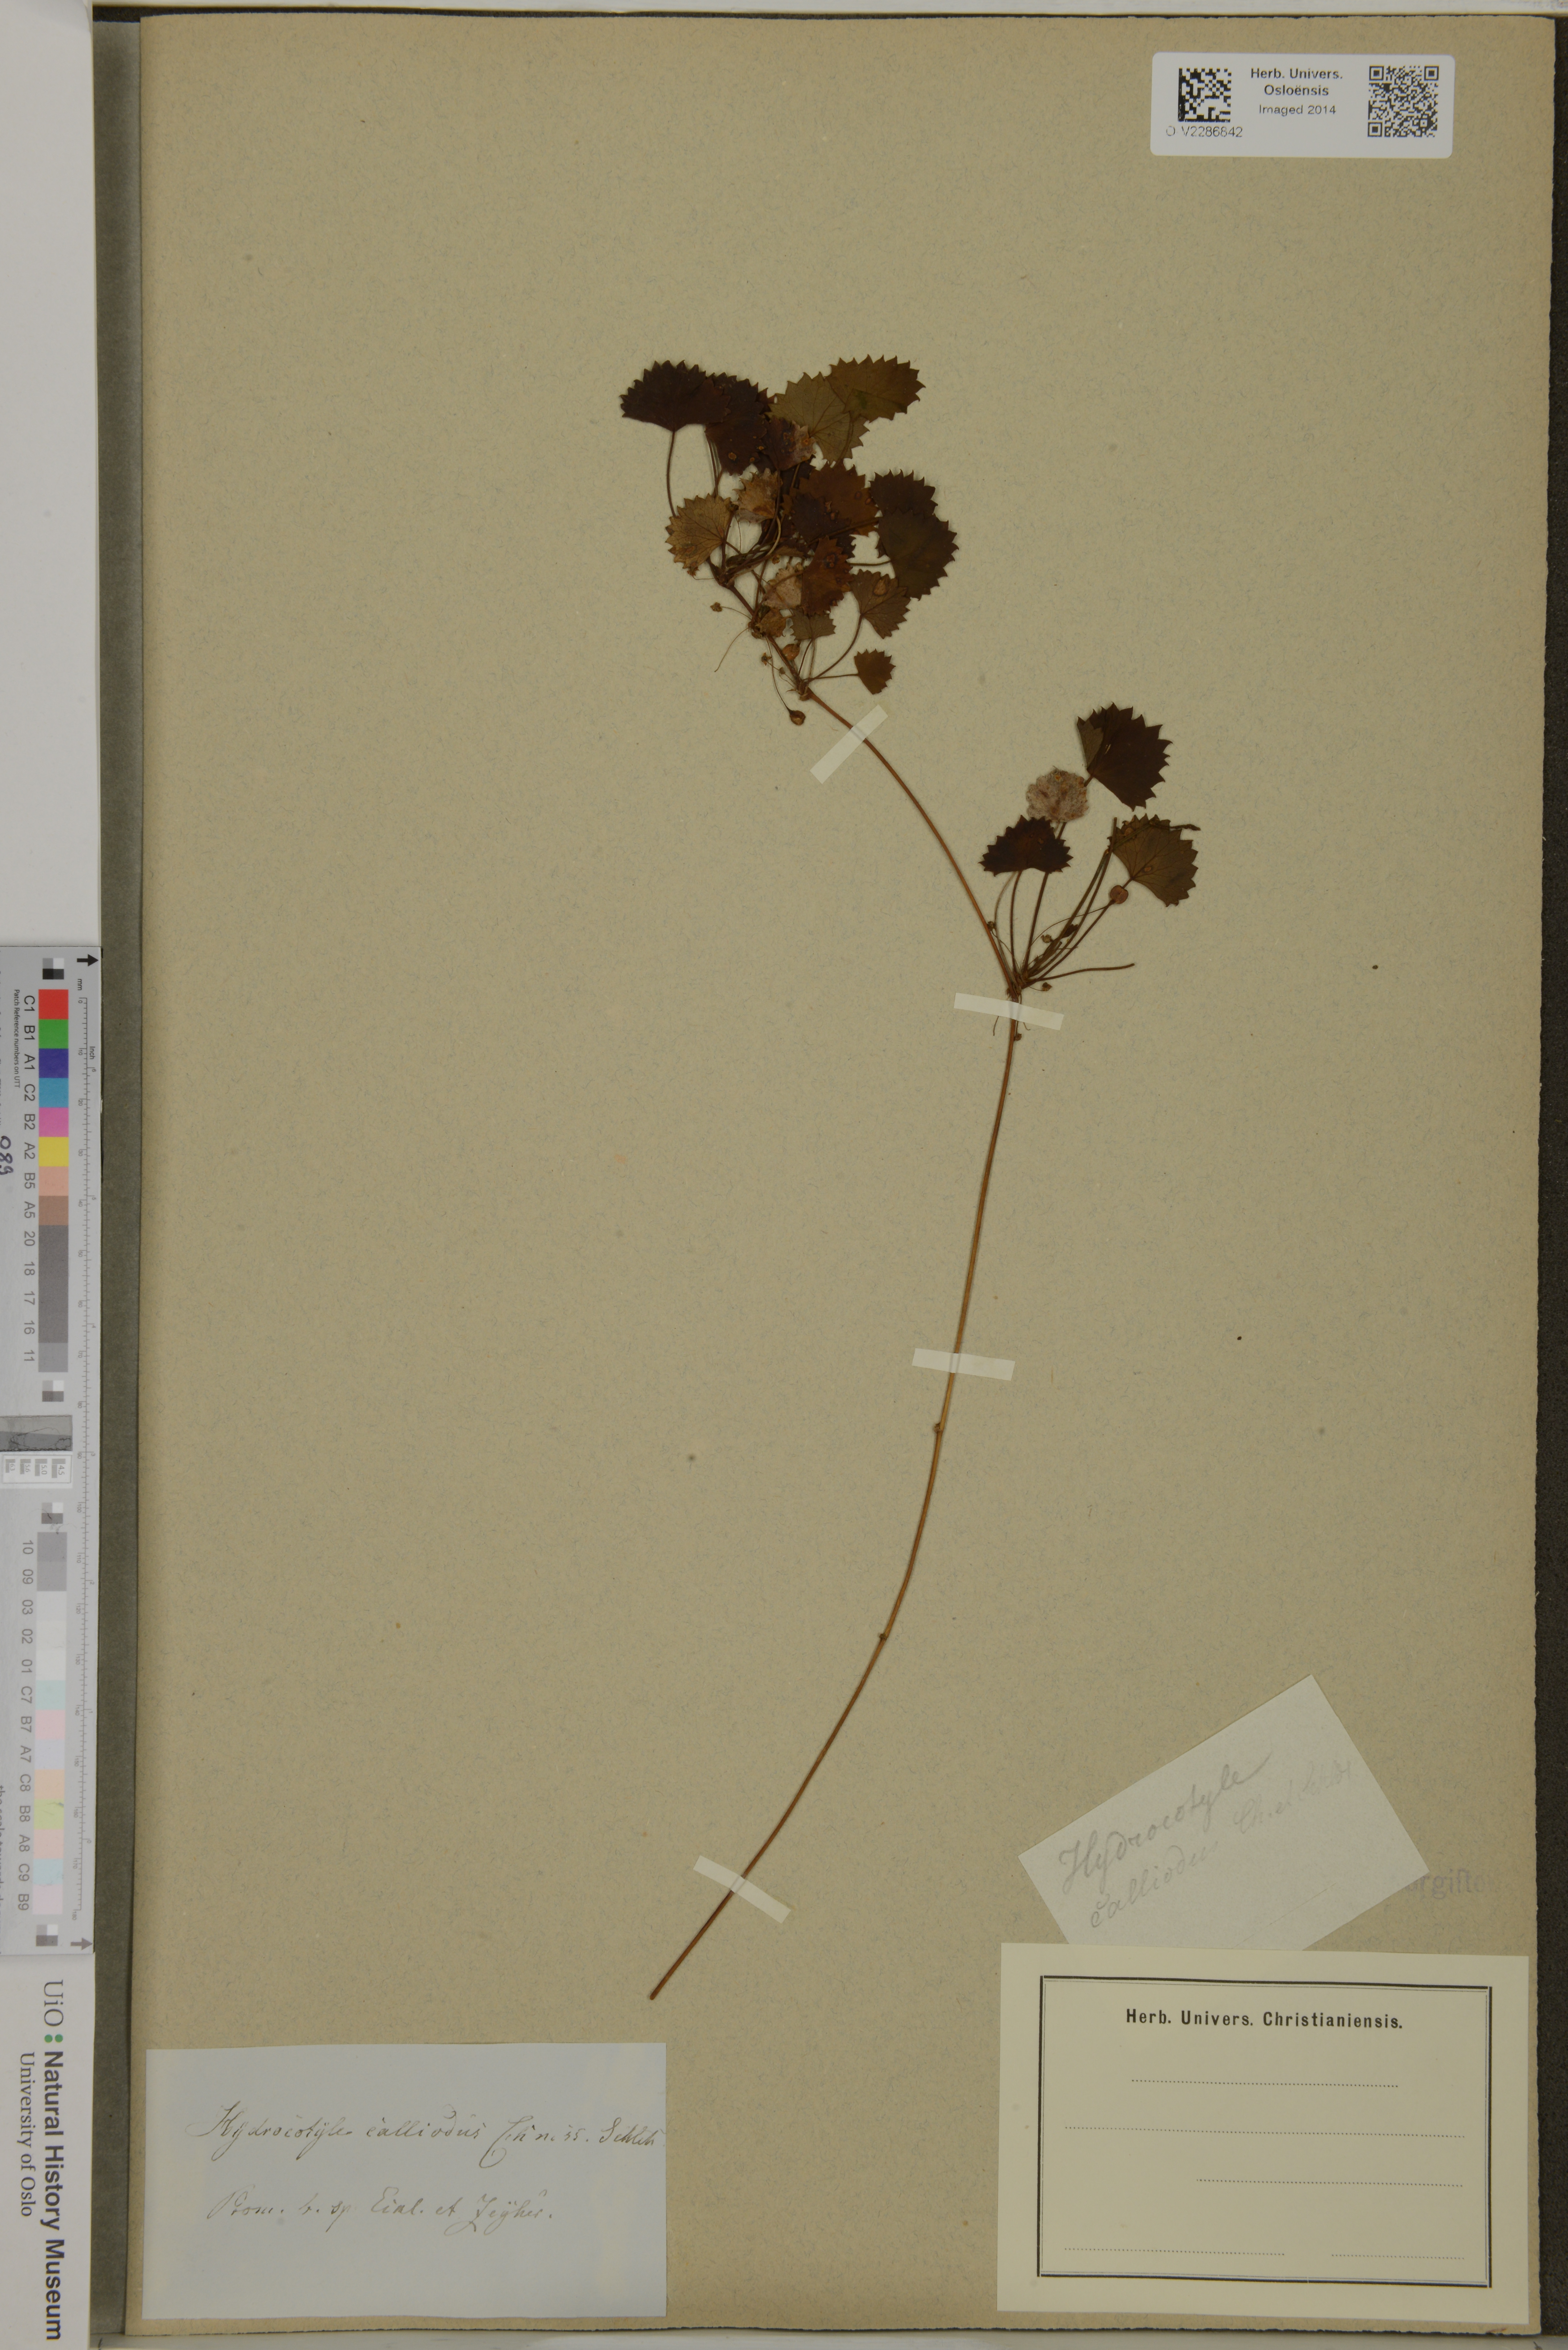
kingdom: Plantae
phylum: Tracheophyta
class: Magnoliopsida
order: Apiales
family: Apiaceae
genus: Centella
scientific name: Centella callioda
